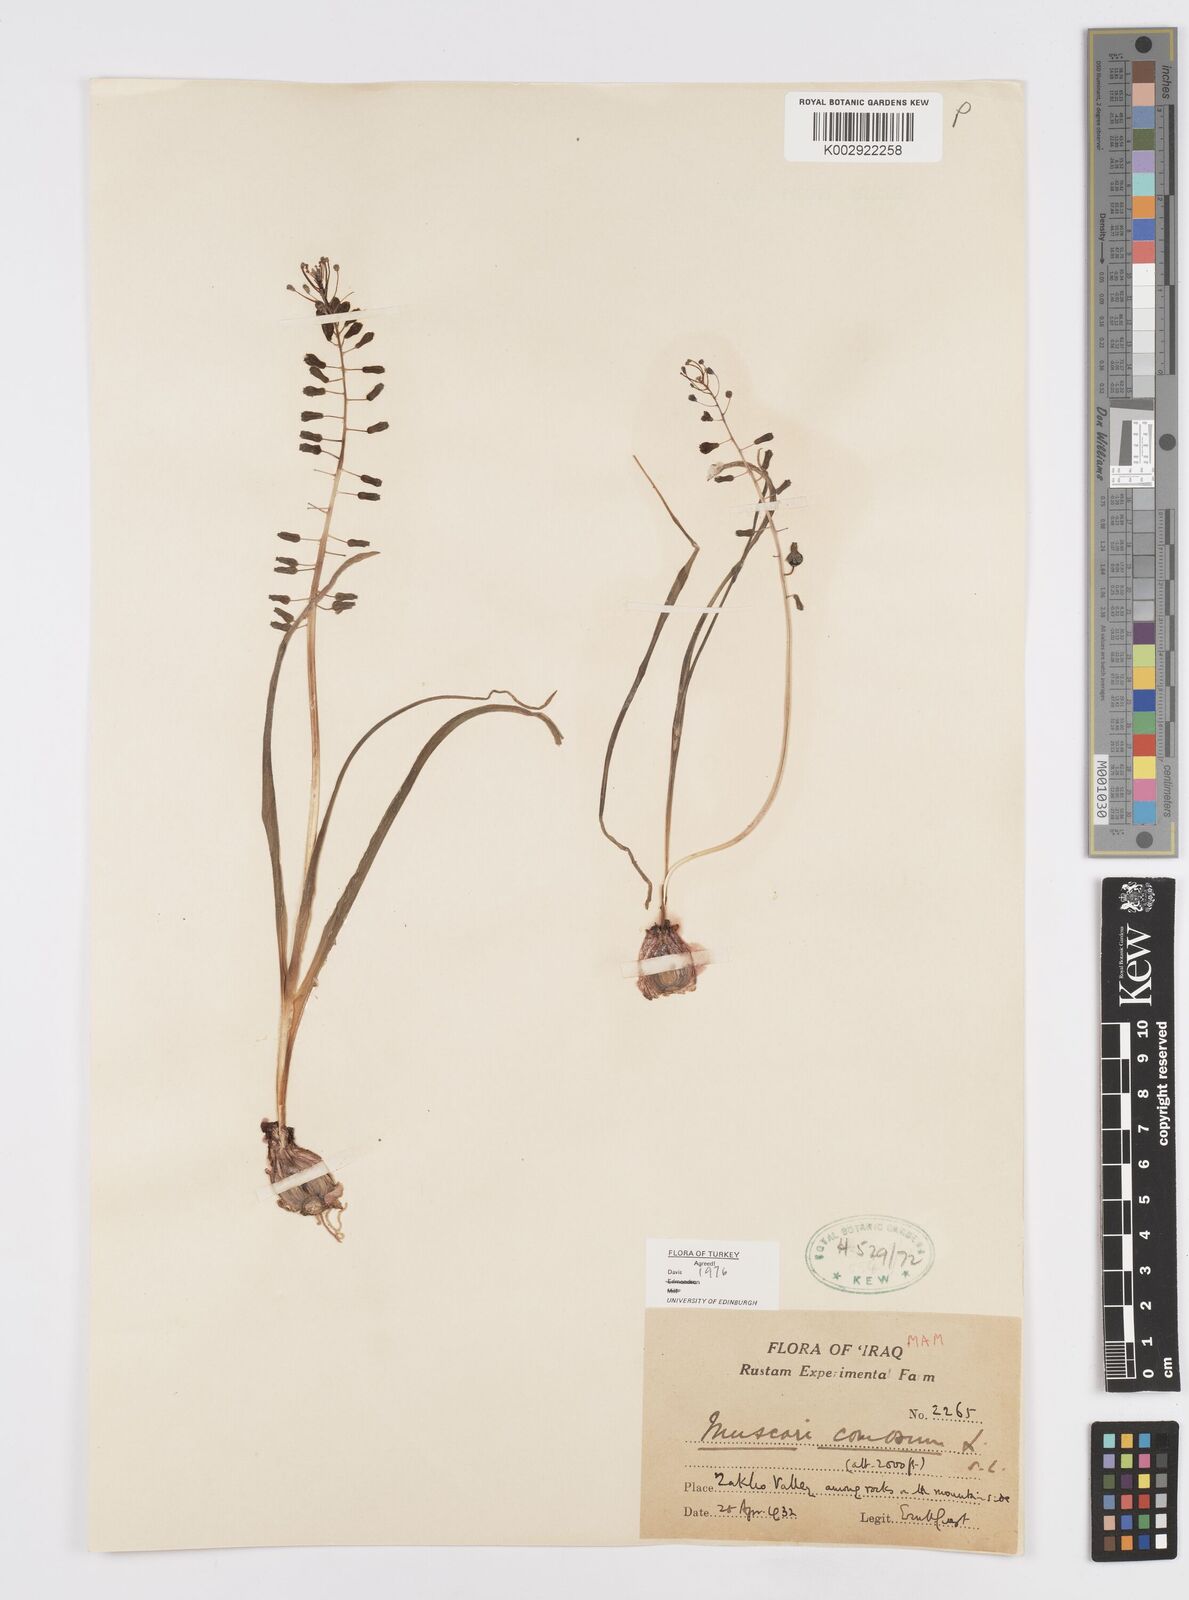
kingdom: Plantae
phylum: Tracheophyta
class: Liliopsida
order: Asparagales
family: Asparagaceae
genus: Muscari
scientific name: Muscari comosum
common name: Tassel hyacinth
